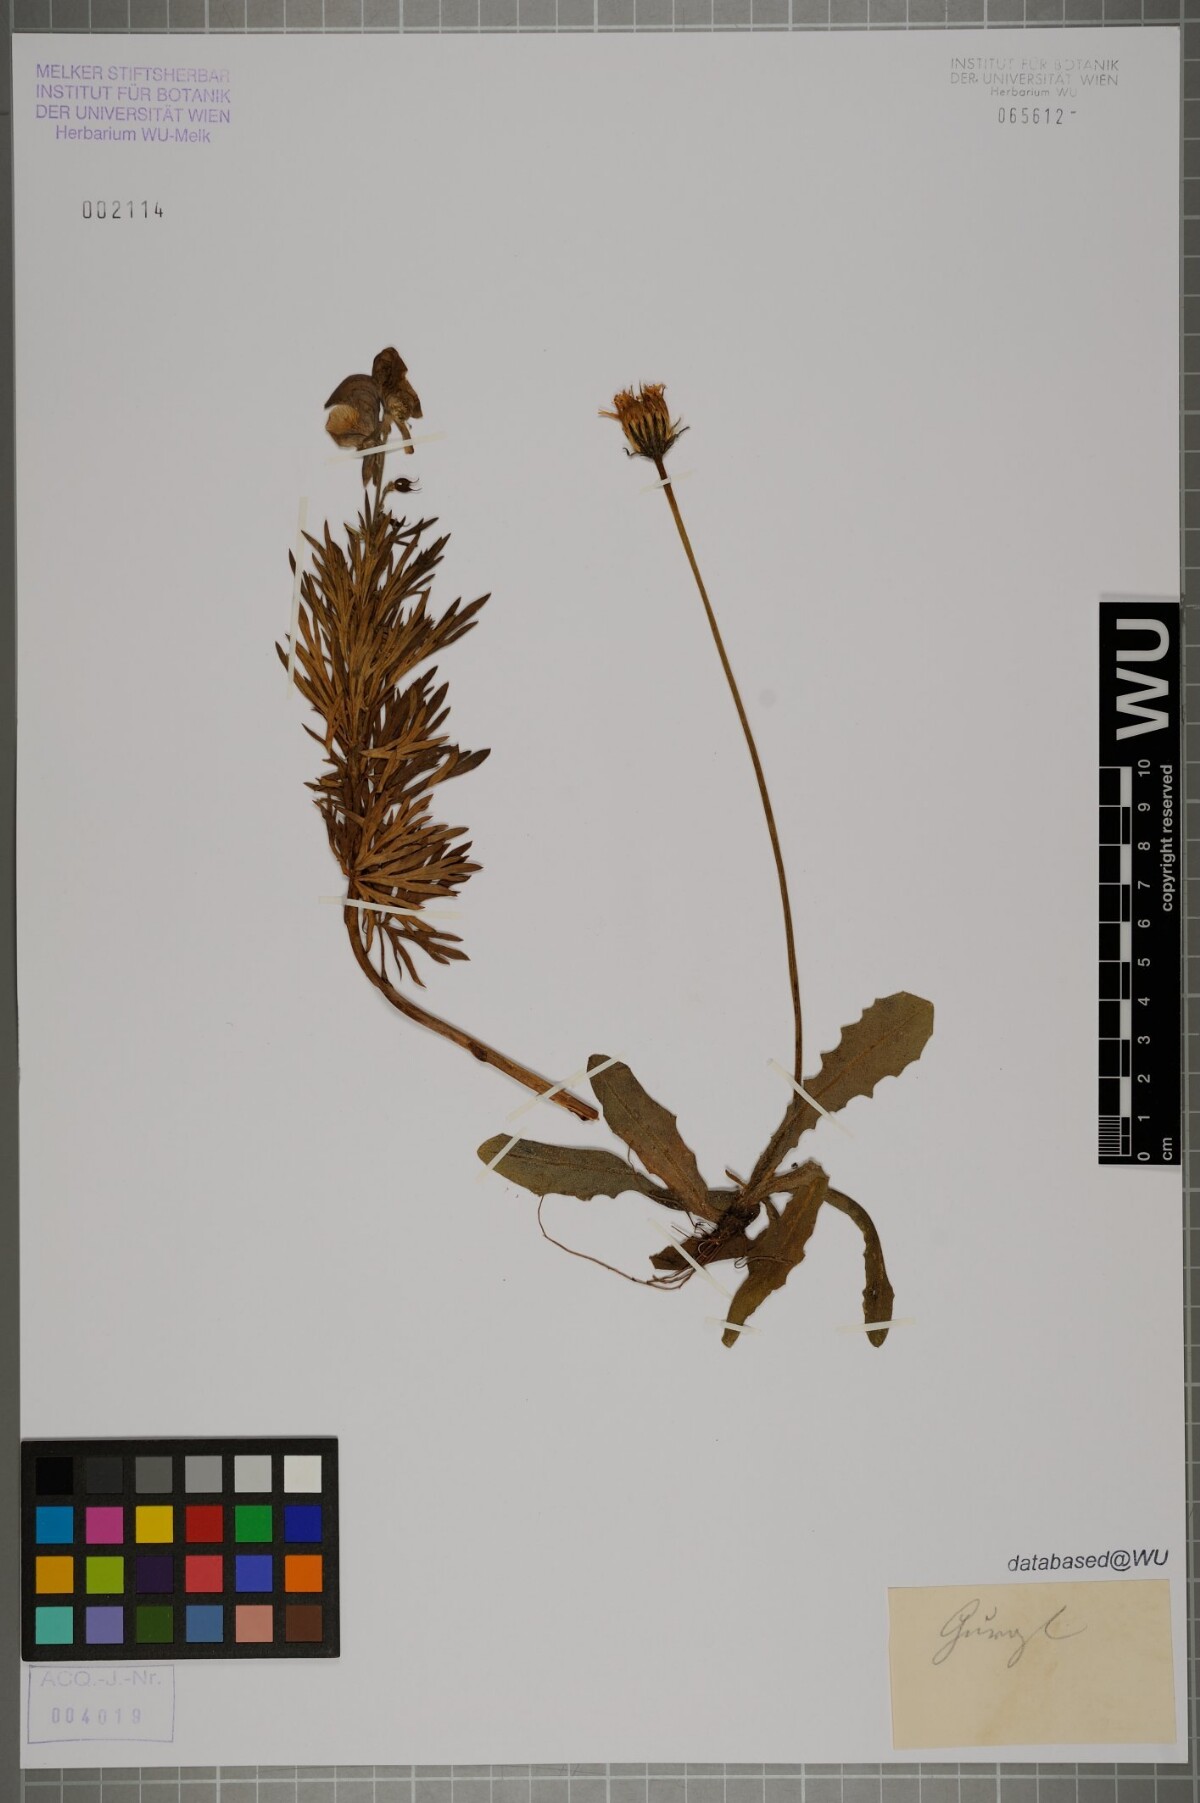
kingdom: Plantae
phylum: Tracheophyta
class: Magnoliopsida
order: Ranunculales
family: Ranunculaceae
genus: Aconitum
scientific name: Aconitum napellus
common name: Garden monkshood
